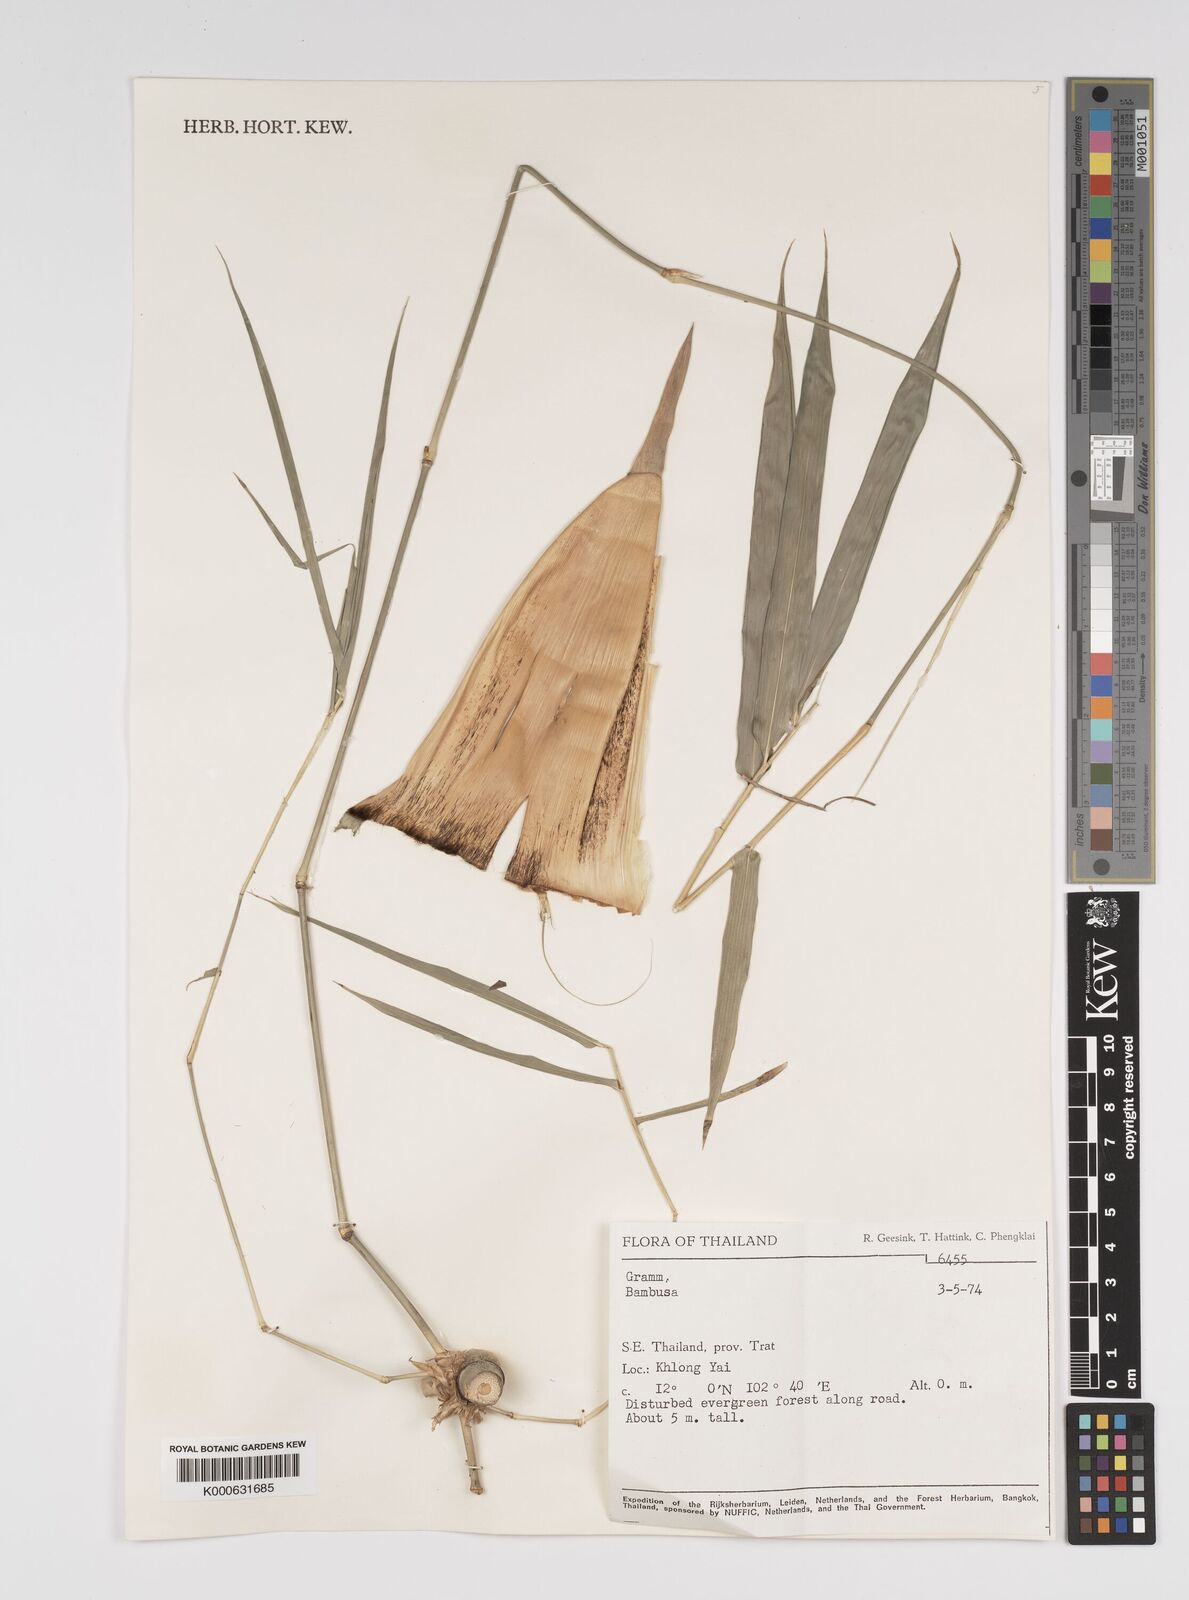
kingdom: Plantae
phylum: Tracheophyta
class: Liliopsida
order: Poales
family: Poaceae
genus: Bambusa
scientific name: Bambusa
